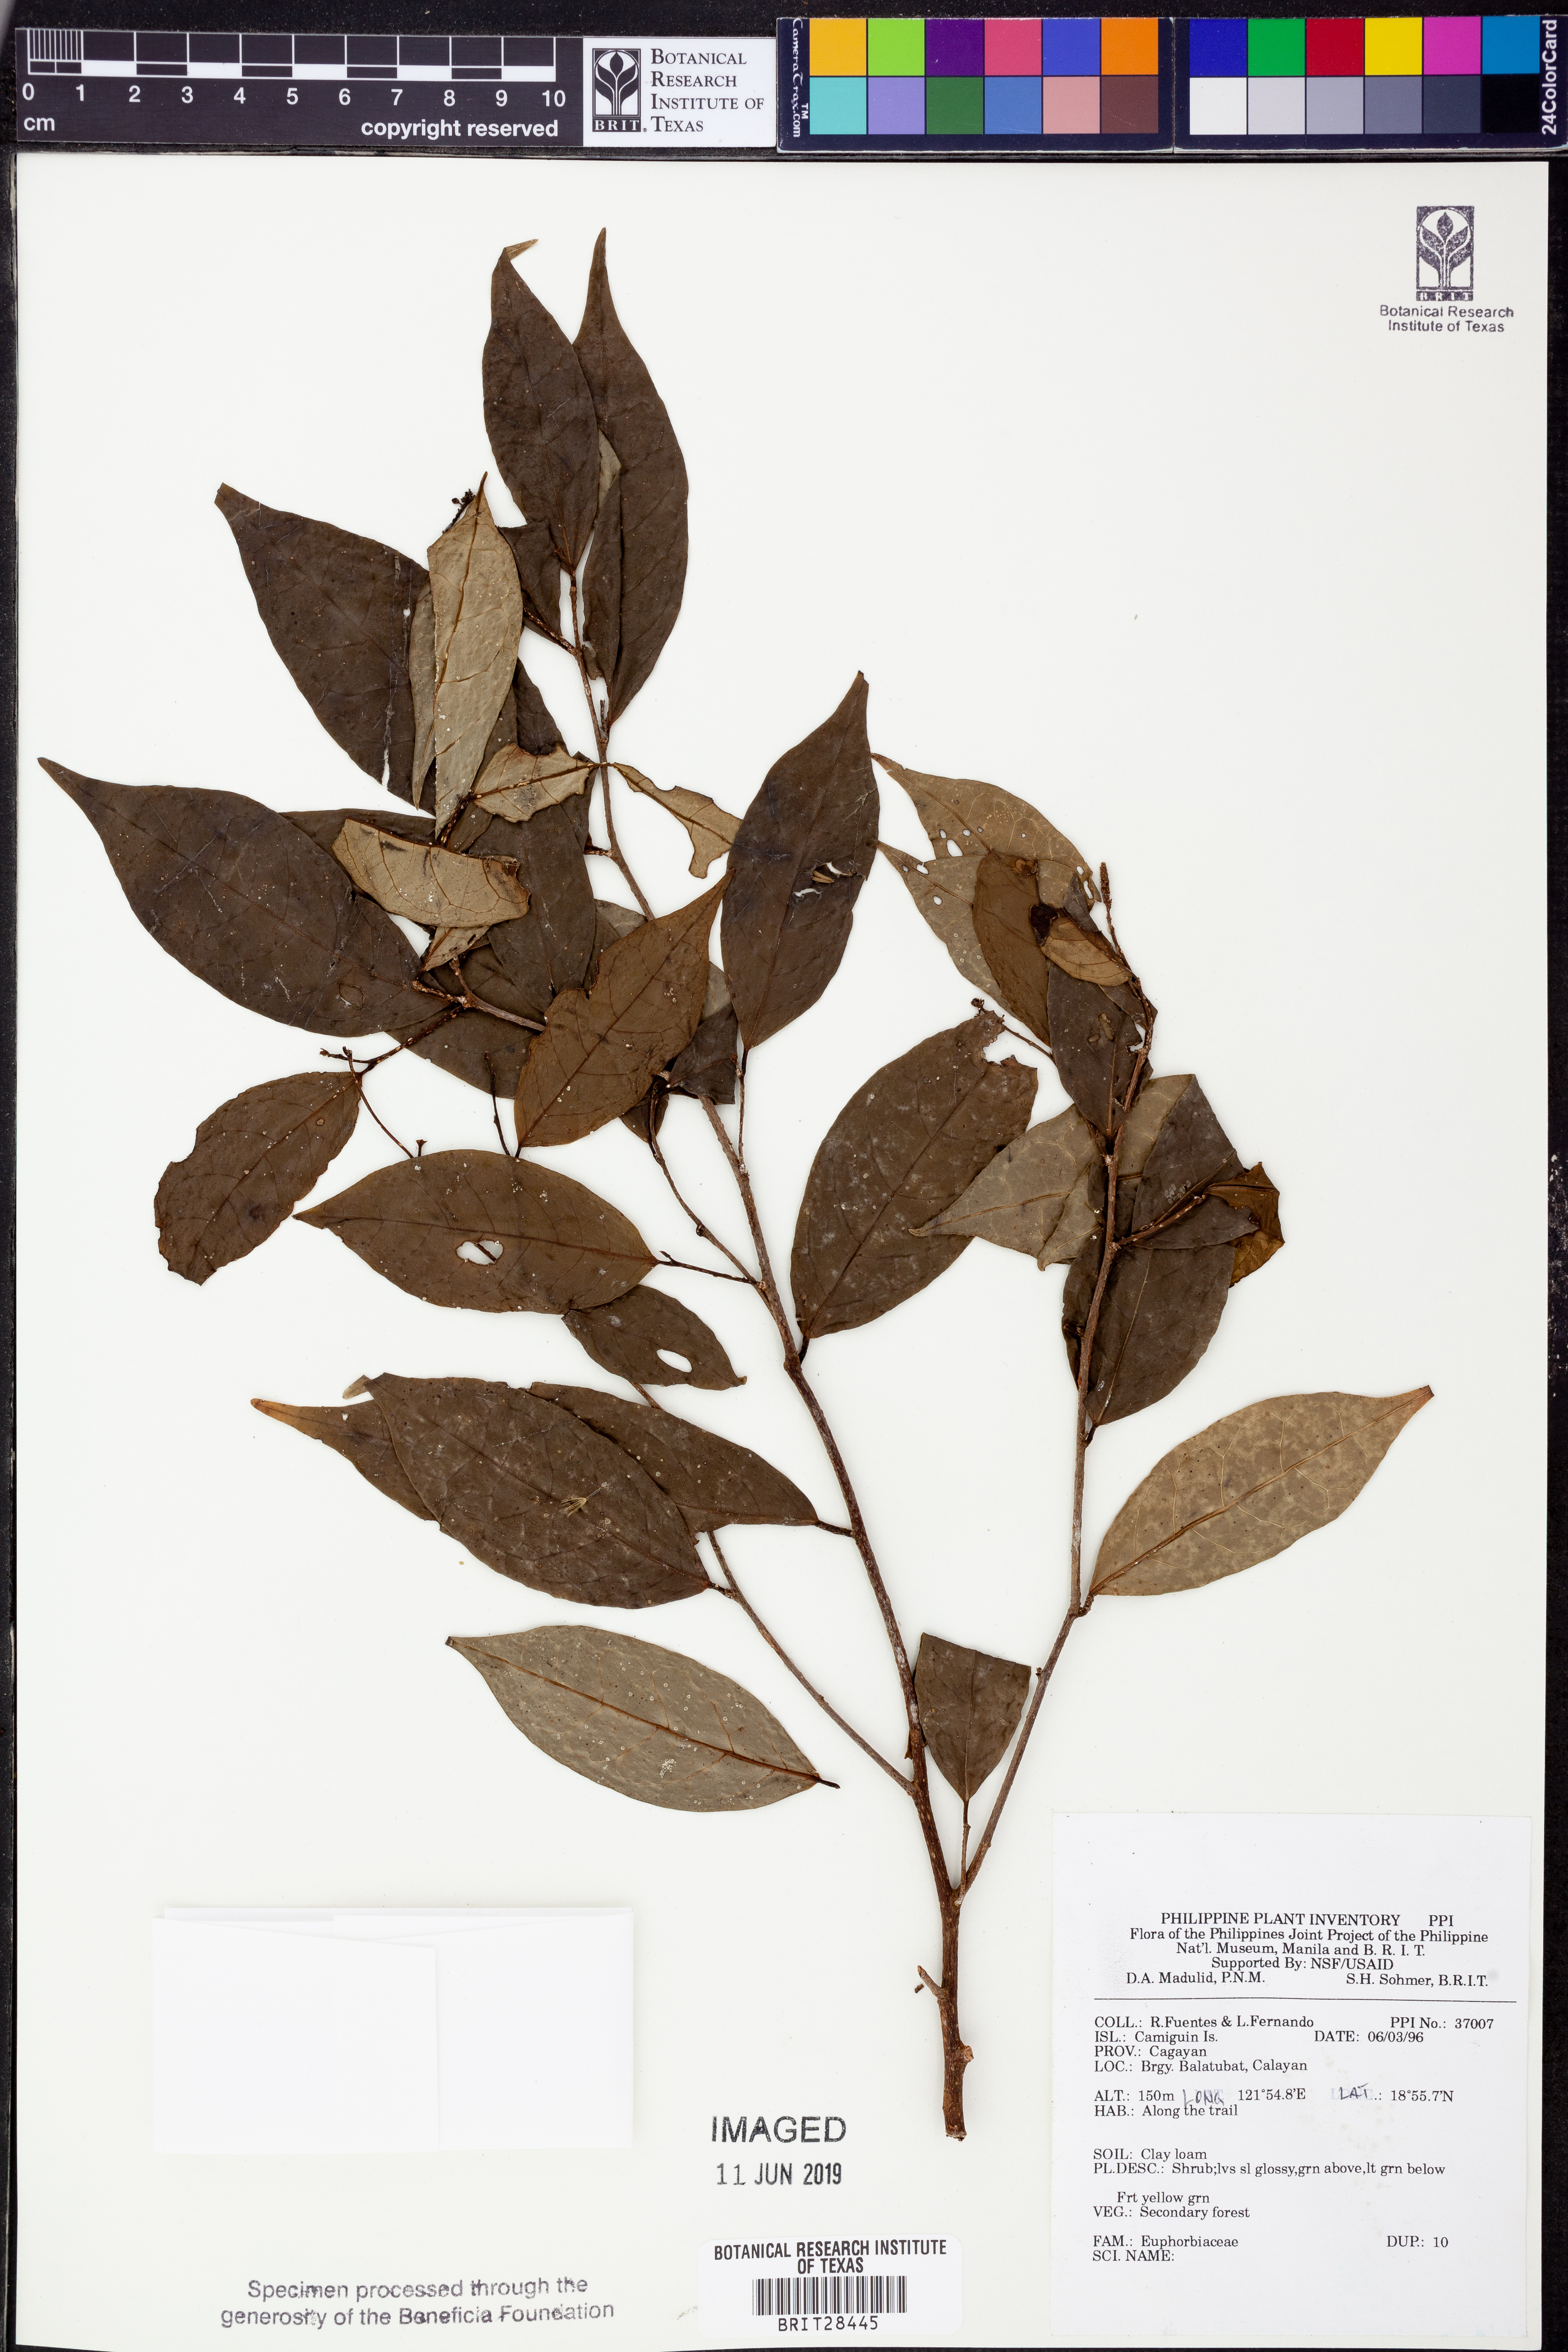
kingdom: Plantae
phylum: Tracheophyta
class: Magnoliopsida
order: Malpighiales
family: Euphorbiaceae
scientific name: Euphorbiaceae
